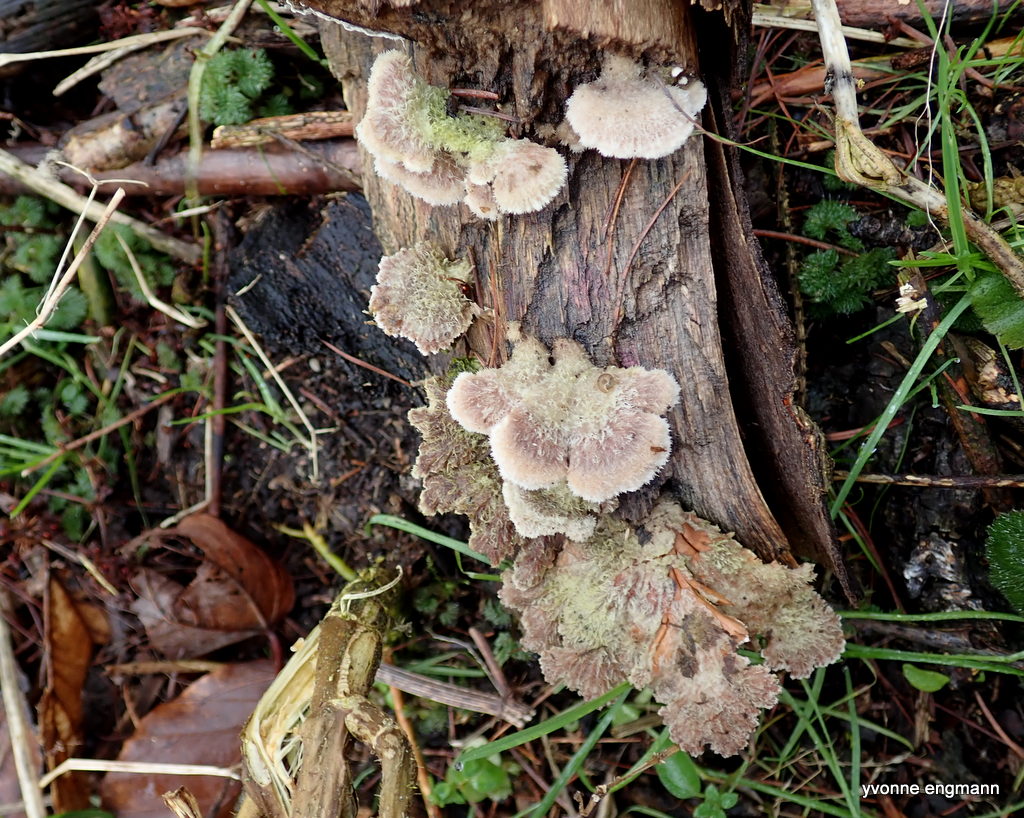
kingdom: Fungi
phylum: Basidiomycota
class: Agaricomycetes
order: Agaricales
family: Schizophyllaceae
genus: Schizophyllum
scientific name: Schizophyllum commune
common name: kløvblad
